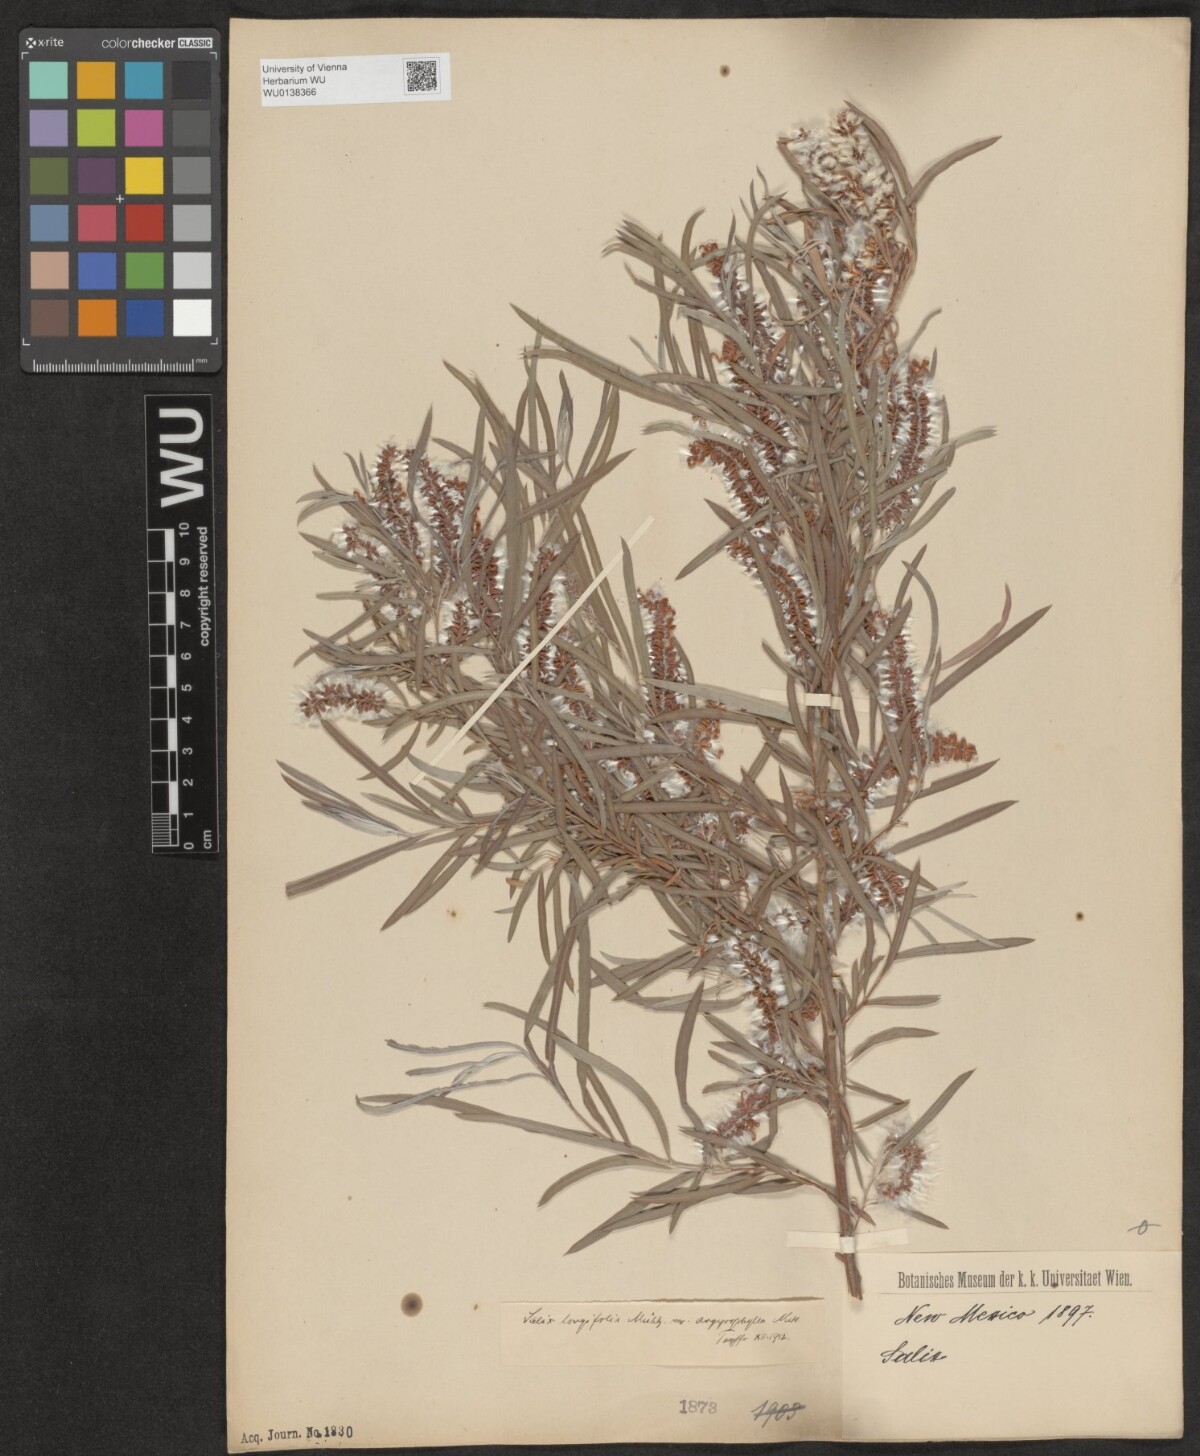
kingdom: Plantae
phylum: Tracheophyta
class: Magnoliopsida
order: Malpighiales
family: Salicaceae
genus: Salix
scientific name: Salix interior
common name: Sandbar willow
